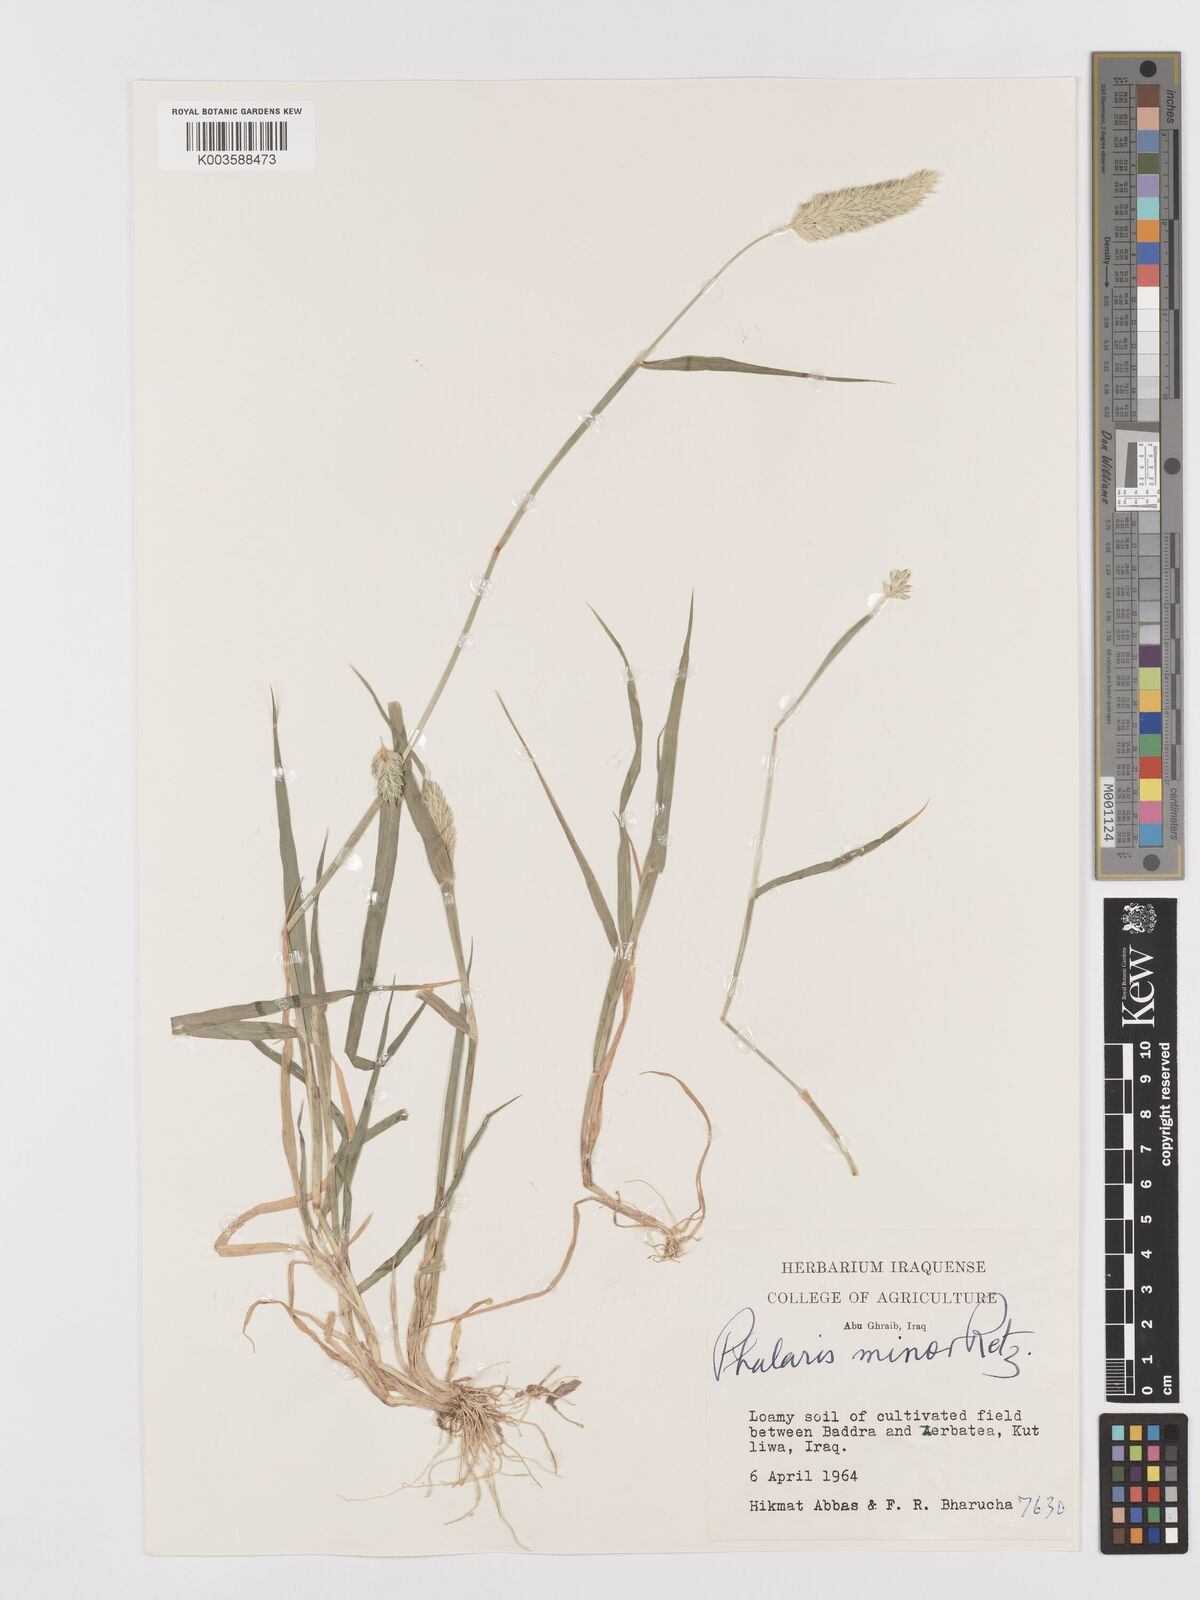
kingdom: Plantae
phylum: Tracheophyta
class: Liliopsida
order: Poales
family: Poaceae
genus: Phalaris
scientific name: Phalaris minor
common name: Littleseed canarygrass
